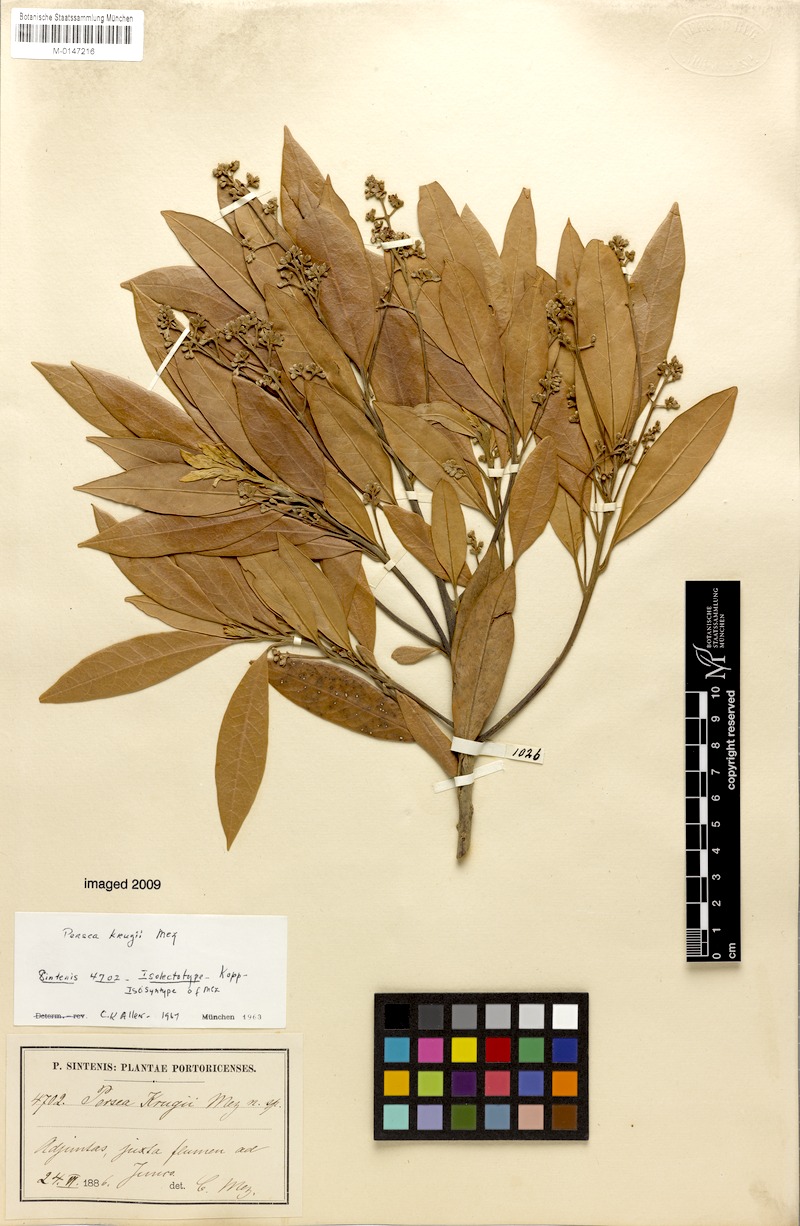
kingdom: Plantae
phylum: Tracheophyta
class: Magnoliopsida
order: Laurales
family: Lauraceae
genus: Persea
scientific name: Persea krugii
